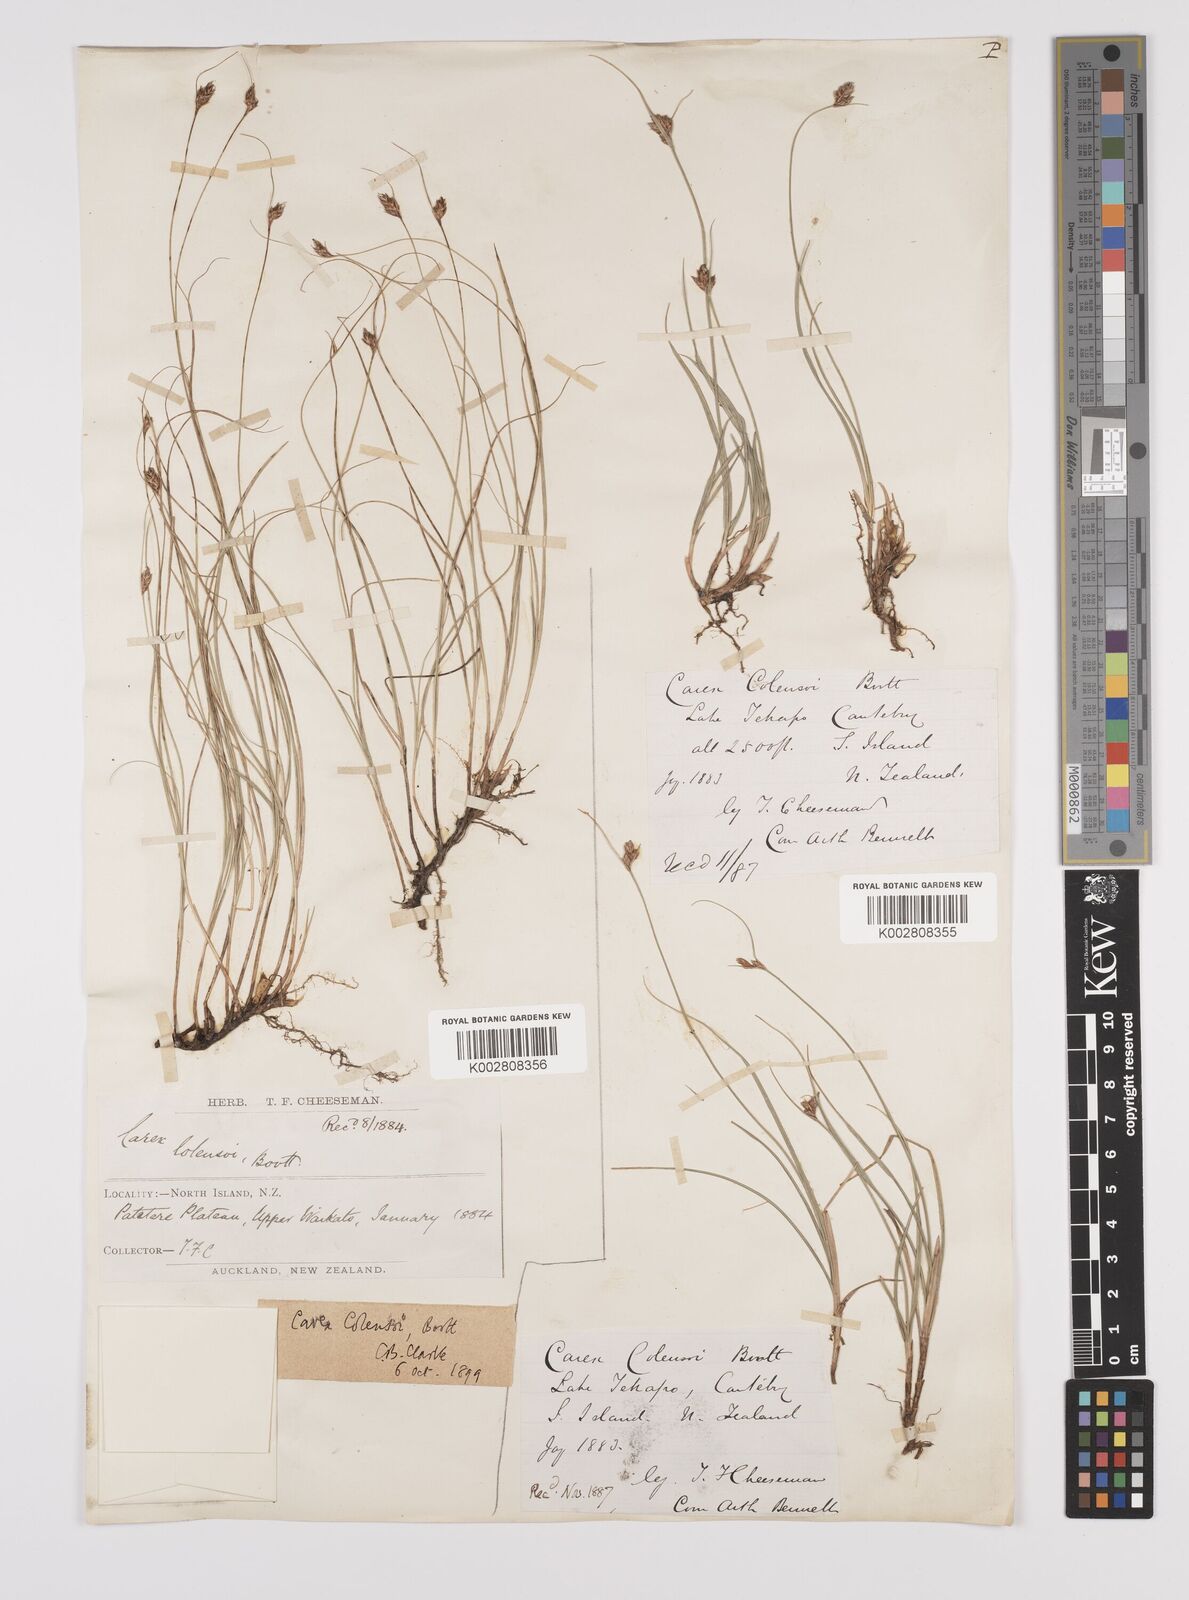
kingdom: Plantae
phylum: Tracheophyta
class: Liliopsida
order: Poales
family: Cyperaceae
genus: Carex
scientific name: Carex colensoi
